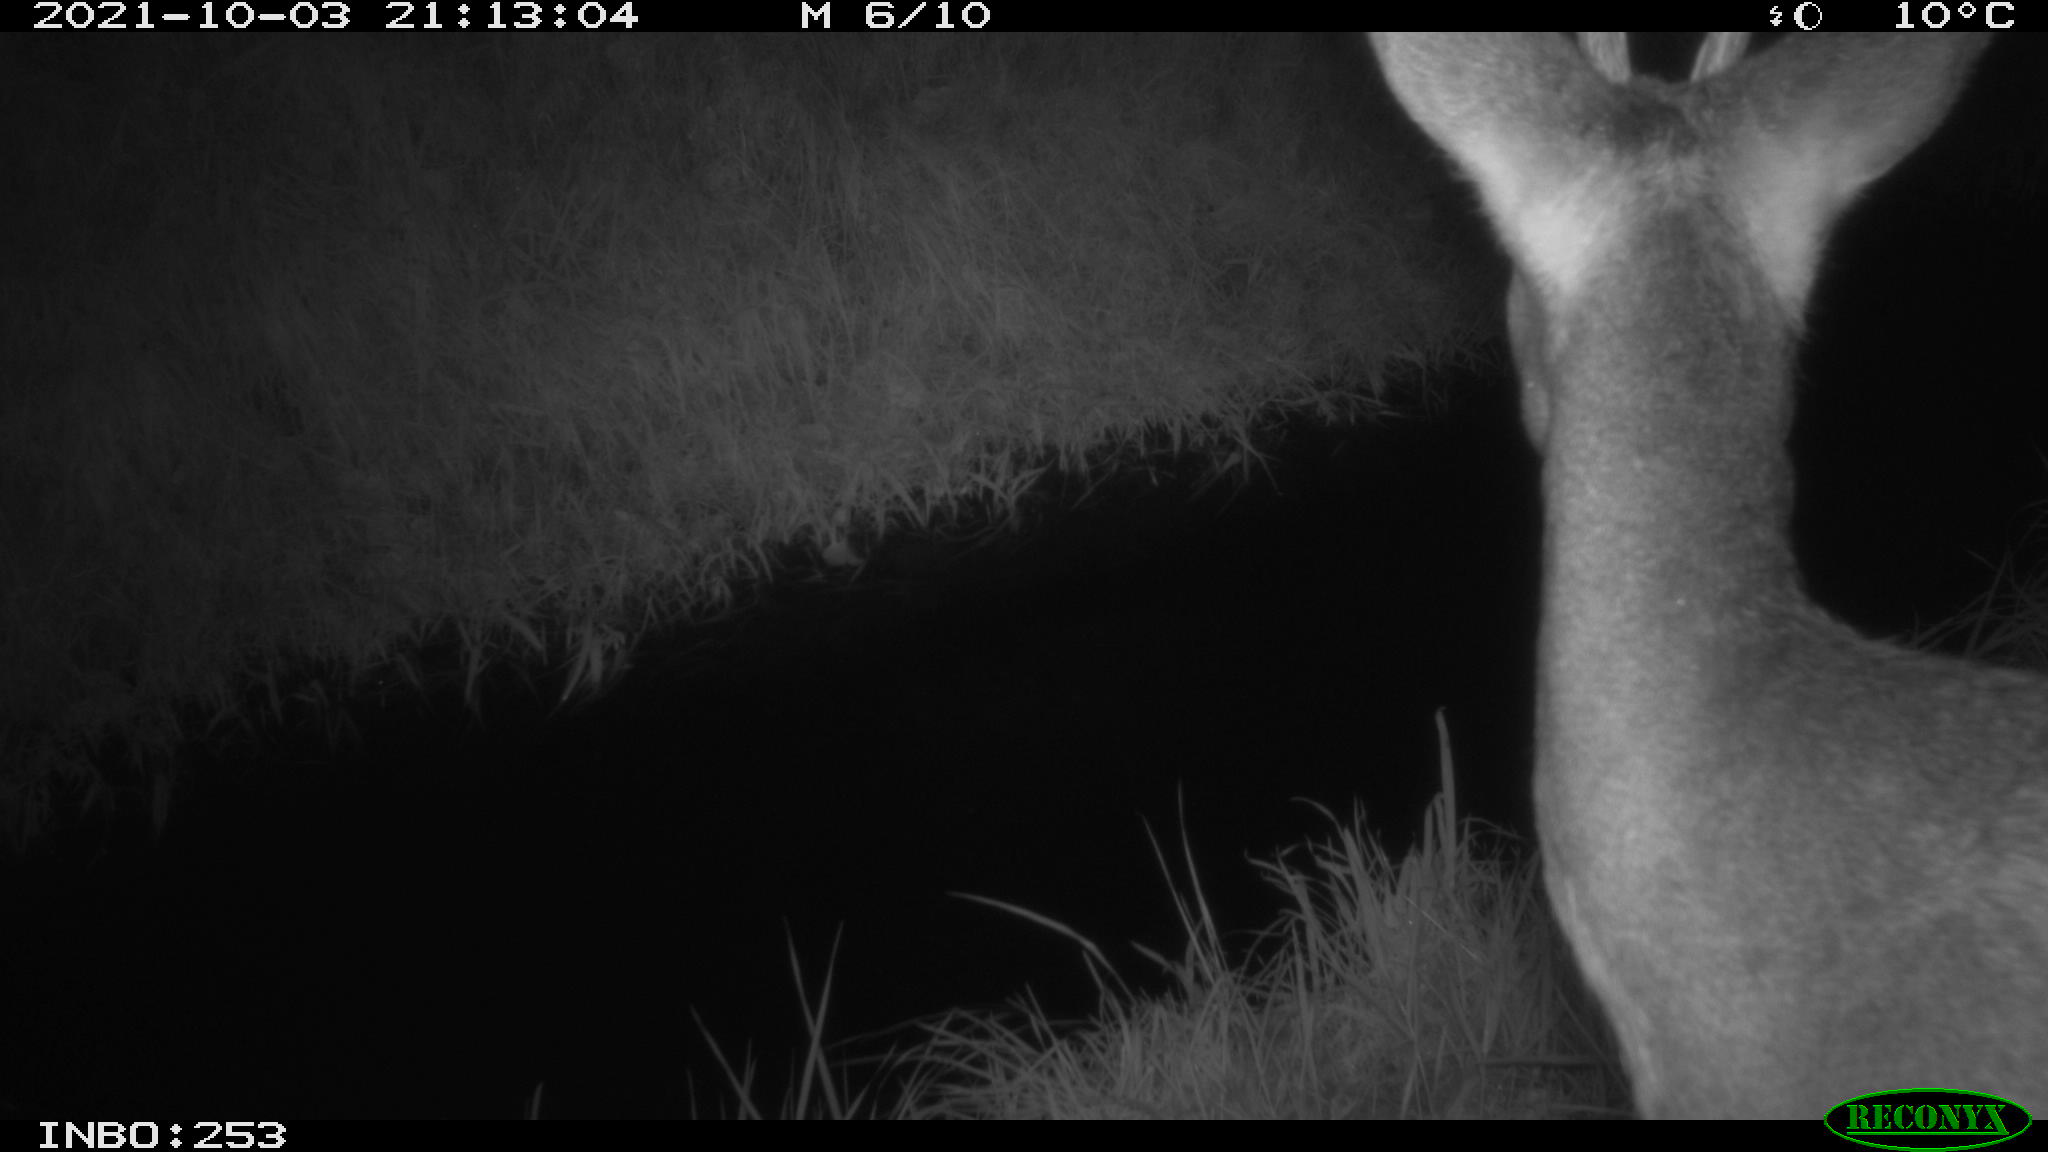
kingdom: Animalia
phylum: Chordata
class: Mammalia
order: Artiodactyla
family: Cervidae
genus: Capreolus
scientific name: Capreolus capreolus
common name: Western roe deer
